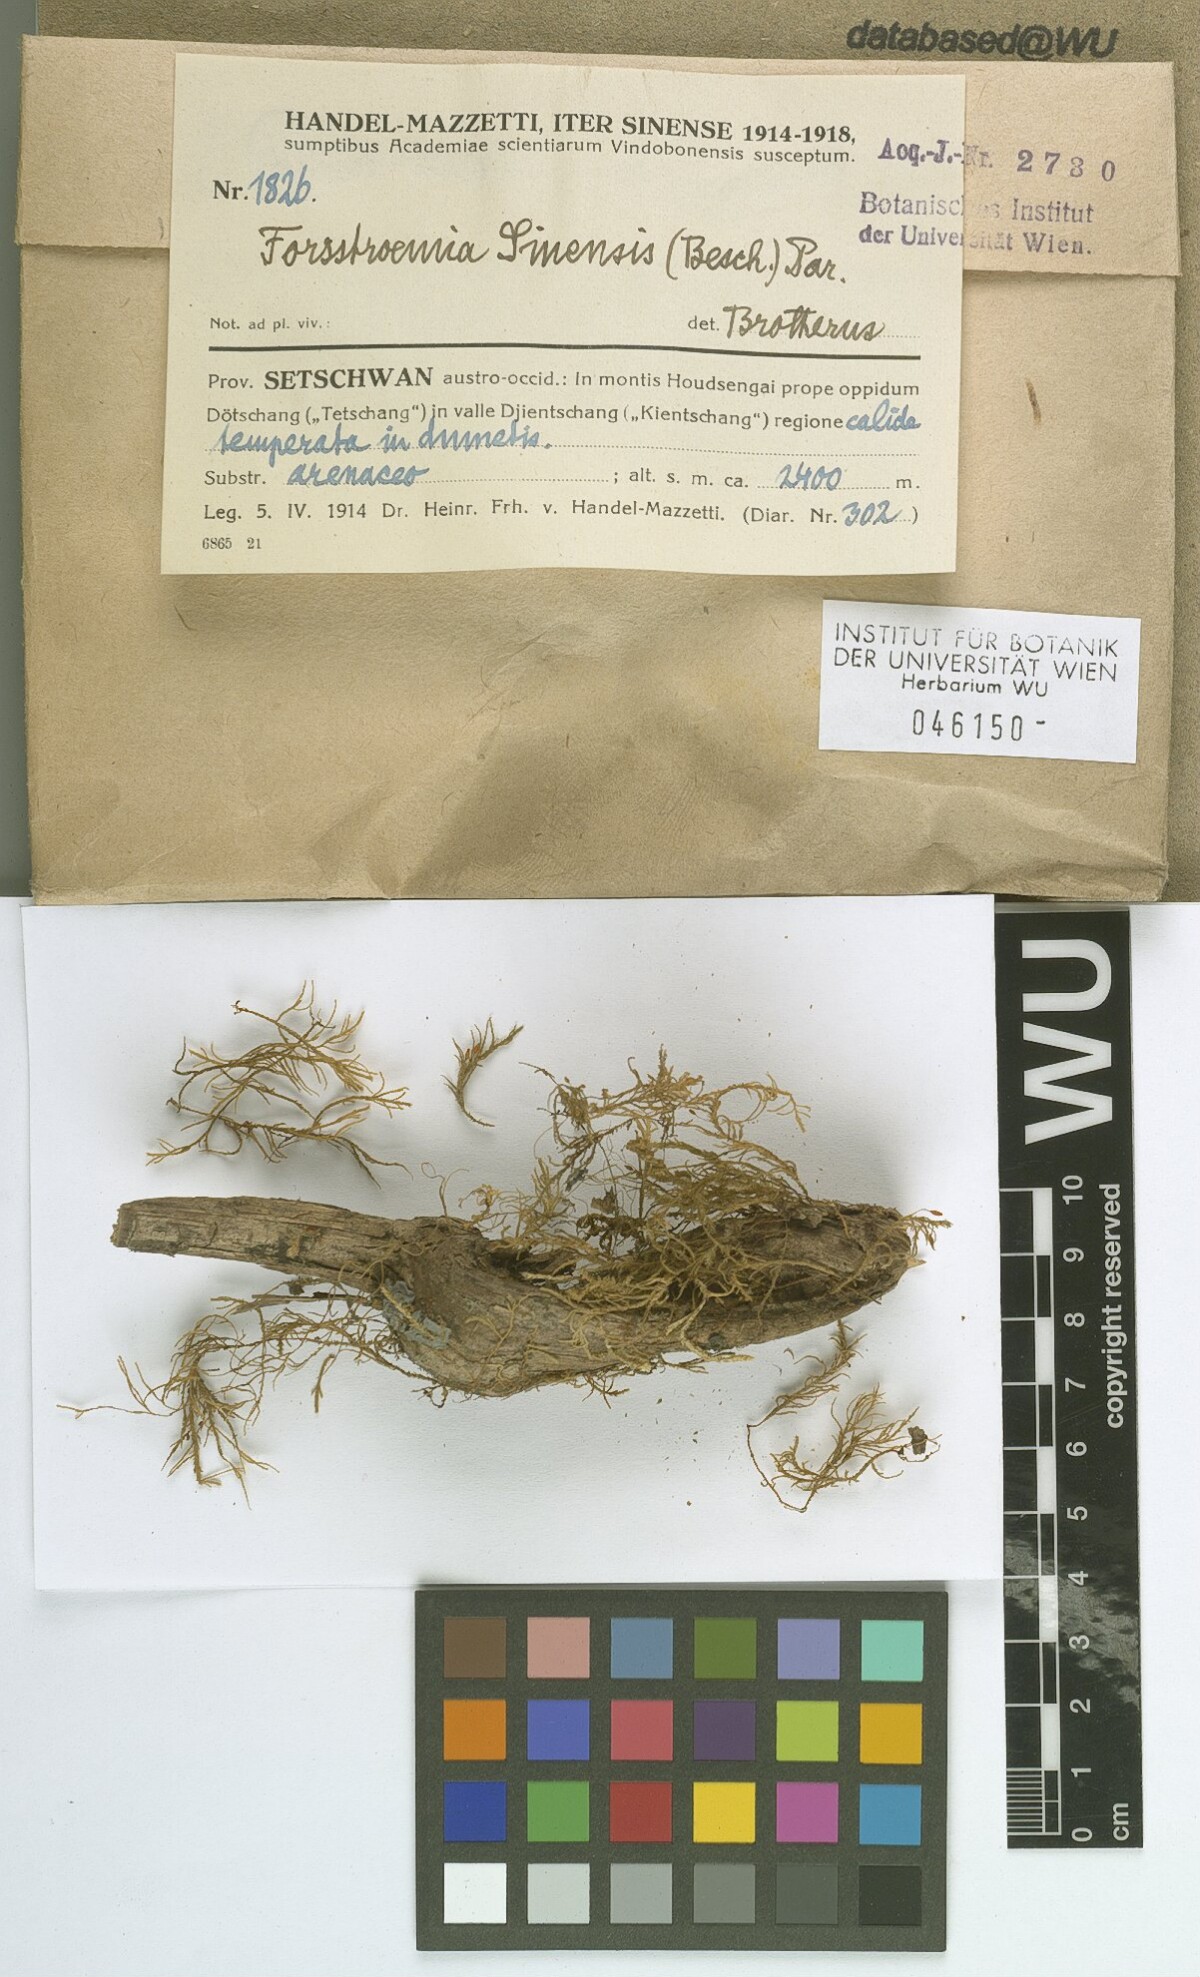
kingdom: Plantae
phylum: Bryophyta
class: Bryopsida
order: Hypnales
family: Neckeraceae
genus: Forsstroemia
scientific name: Forsstroemia producta
